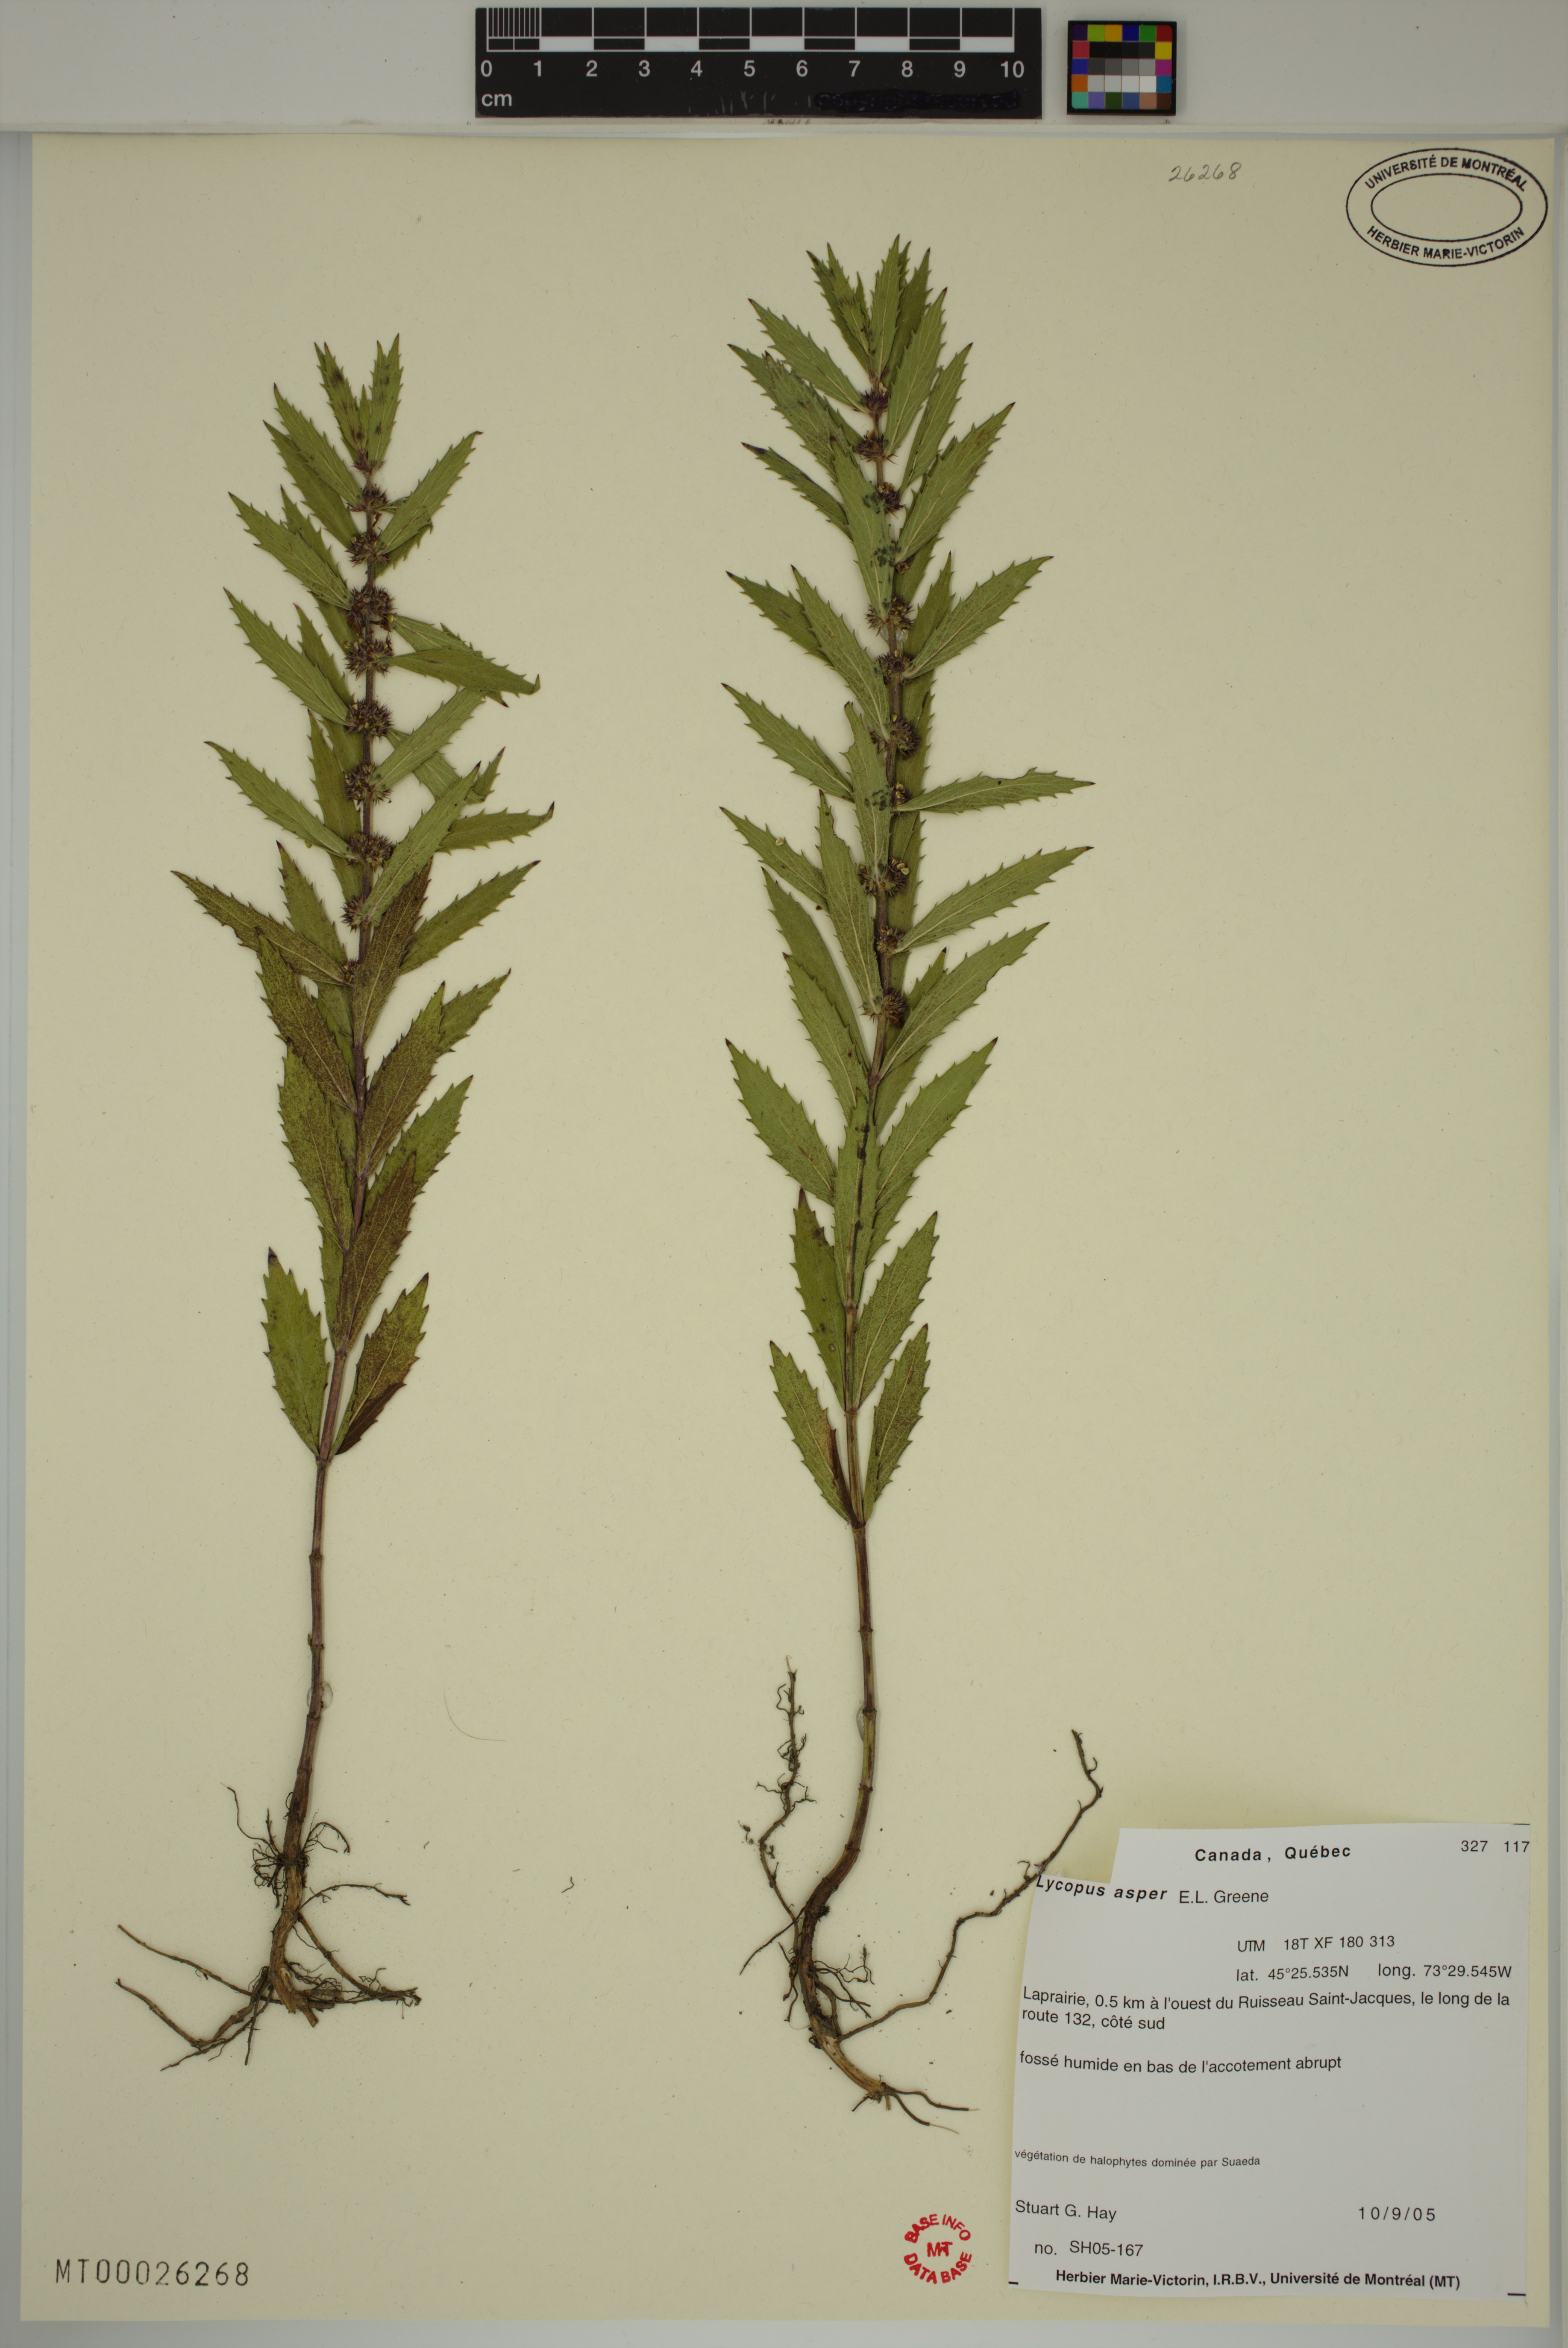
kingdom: Plantae
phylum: Tracheophyta
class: Magnoliopsida
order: Lamiales
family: Lamiaceae
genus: Lycopus
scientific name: Lycopus asper
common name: Rough water-horehound
